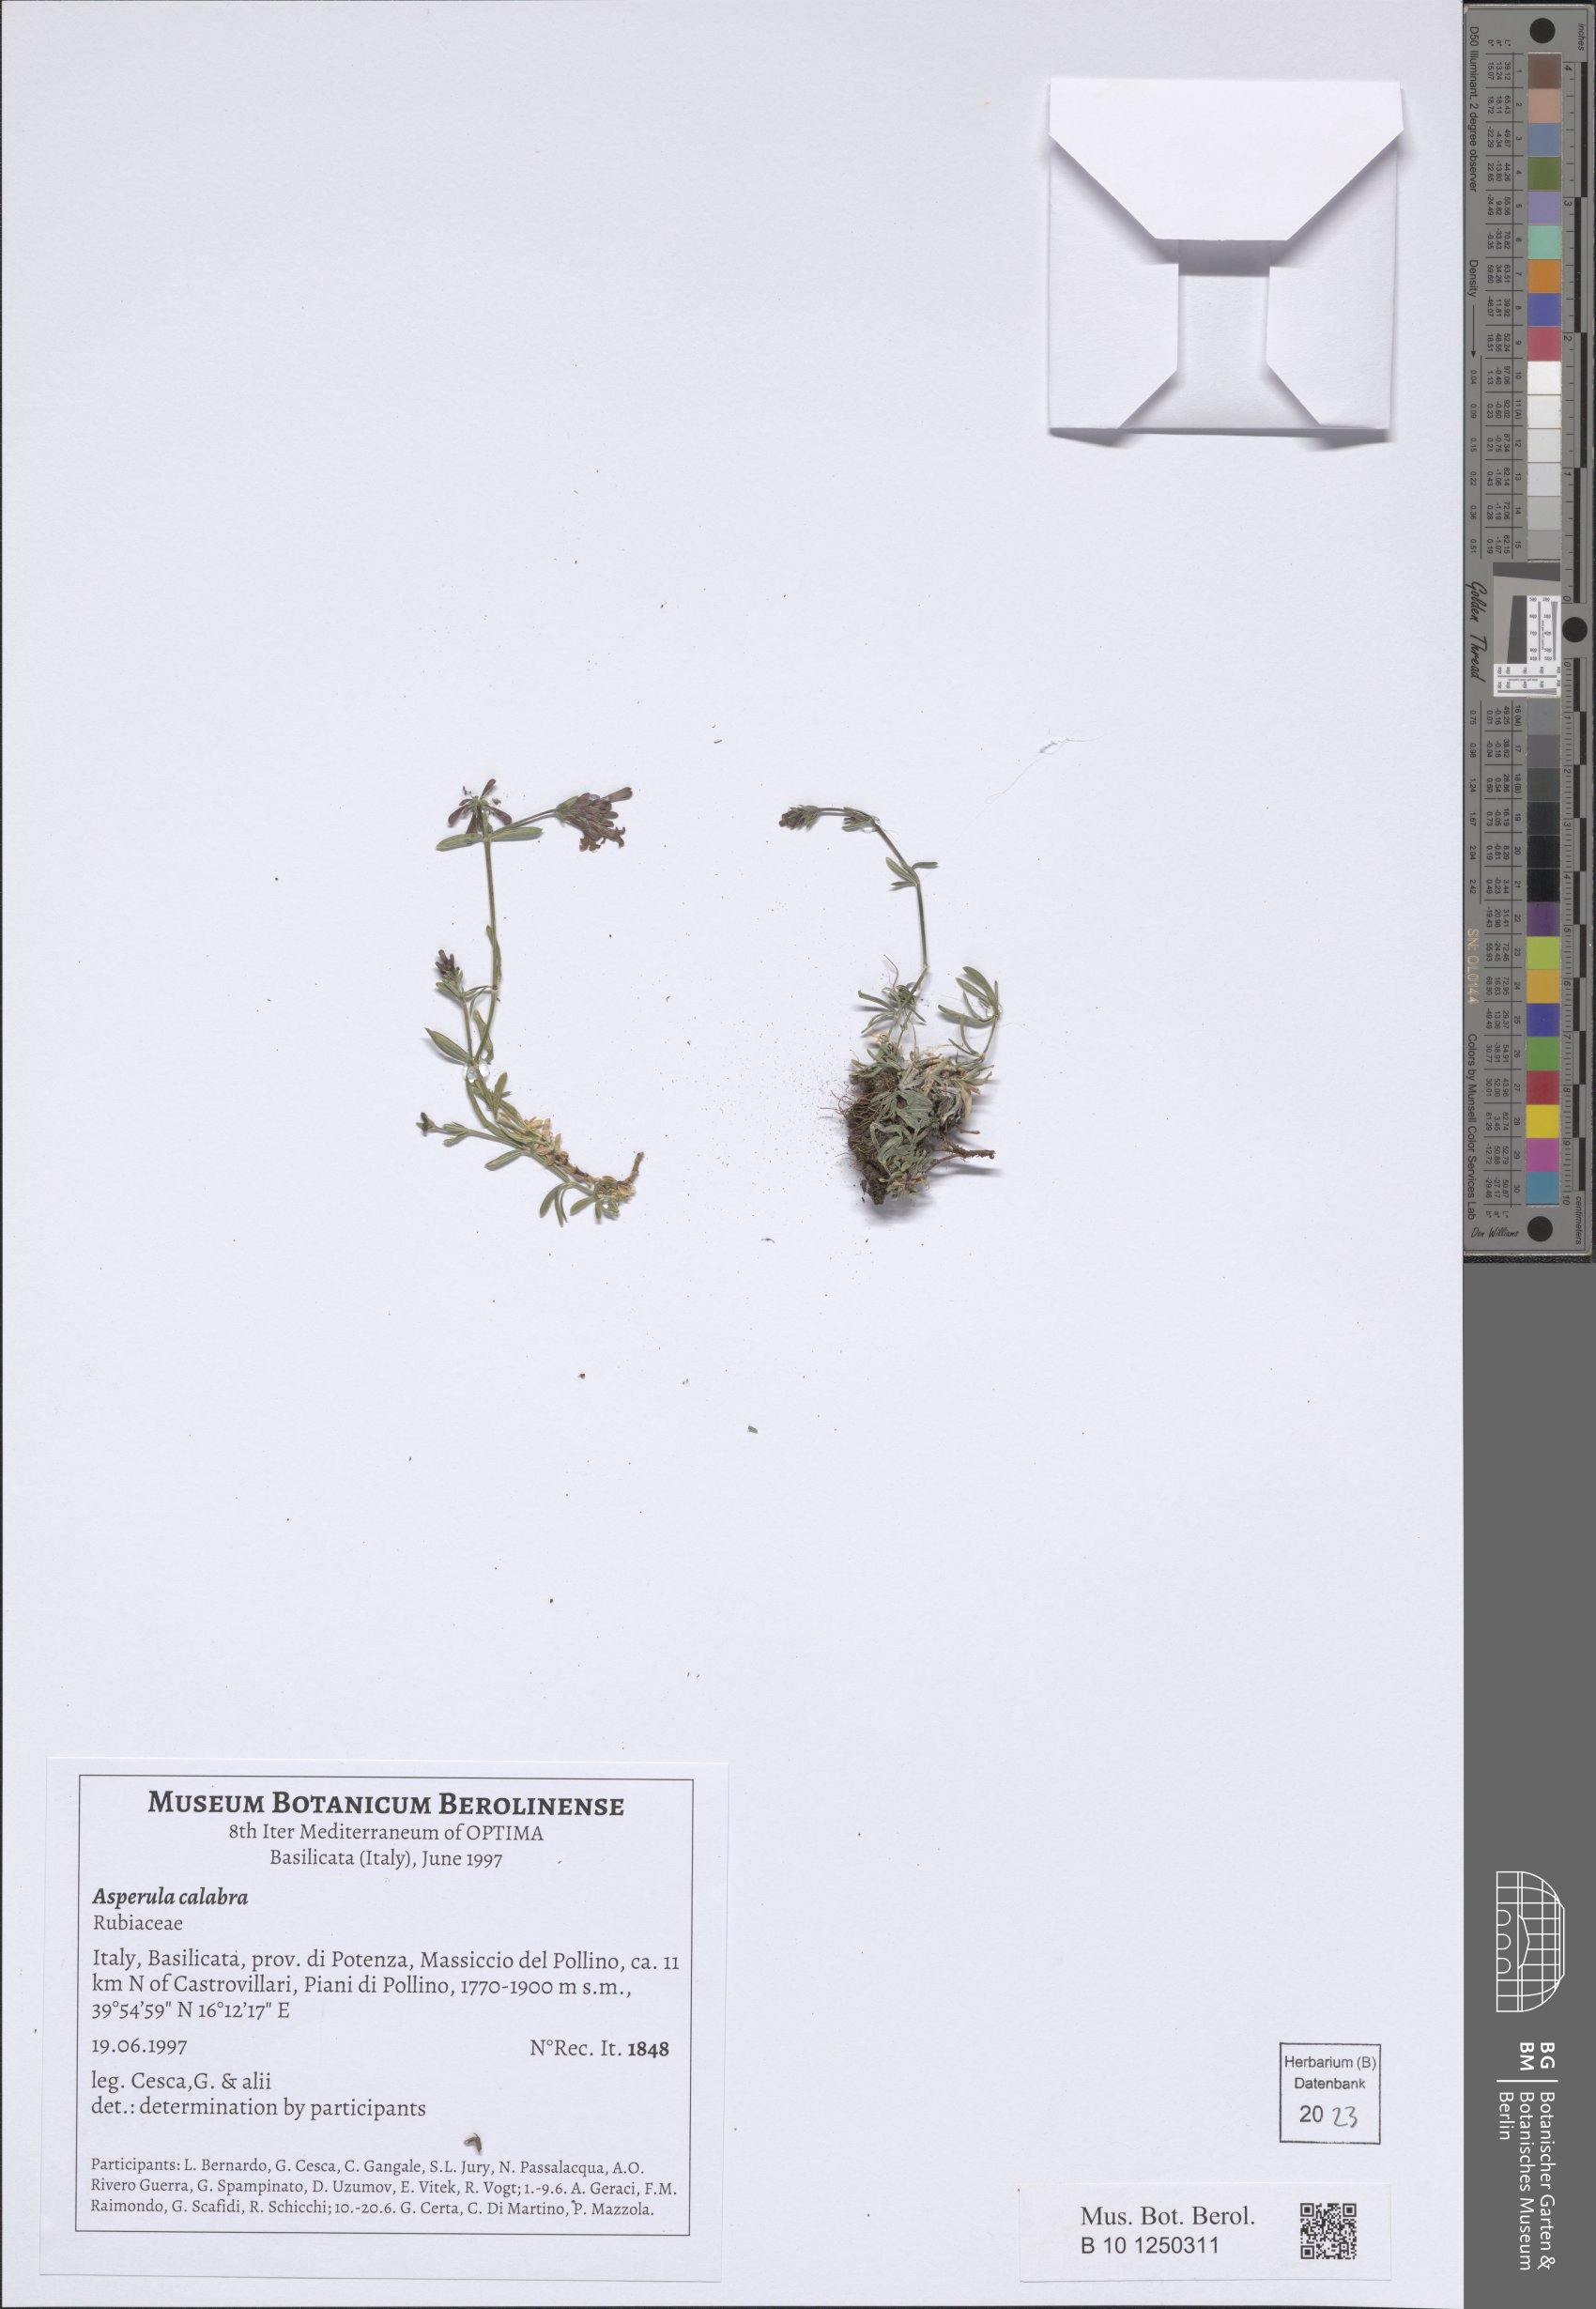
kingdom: Plantae
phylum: Tracheophyta
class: Magnoliopsida
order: Gentianales
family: Rubiaceae
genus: Cynanchica
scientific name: Cynanchica aristata
